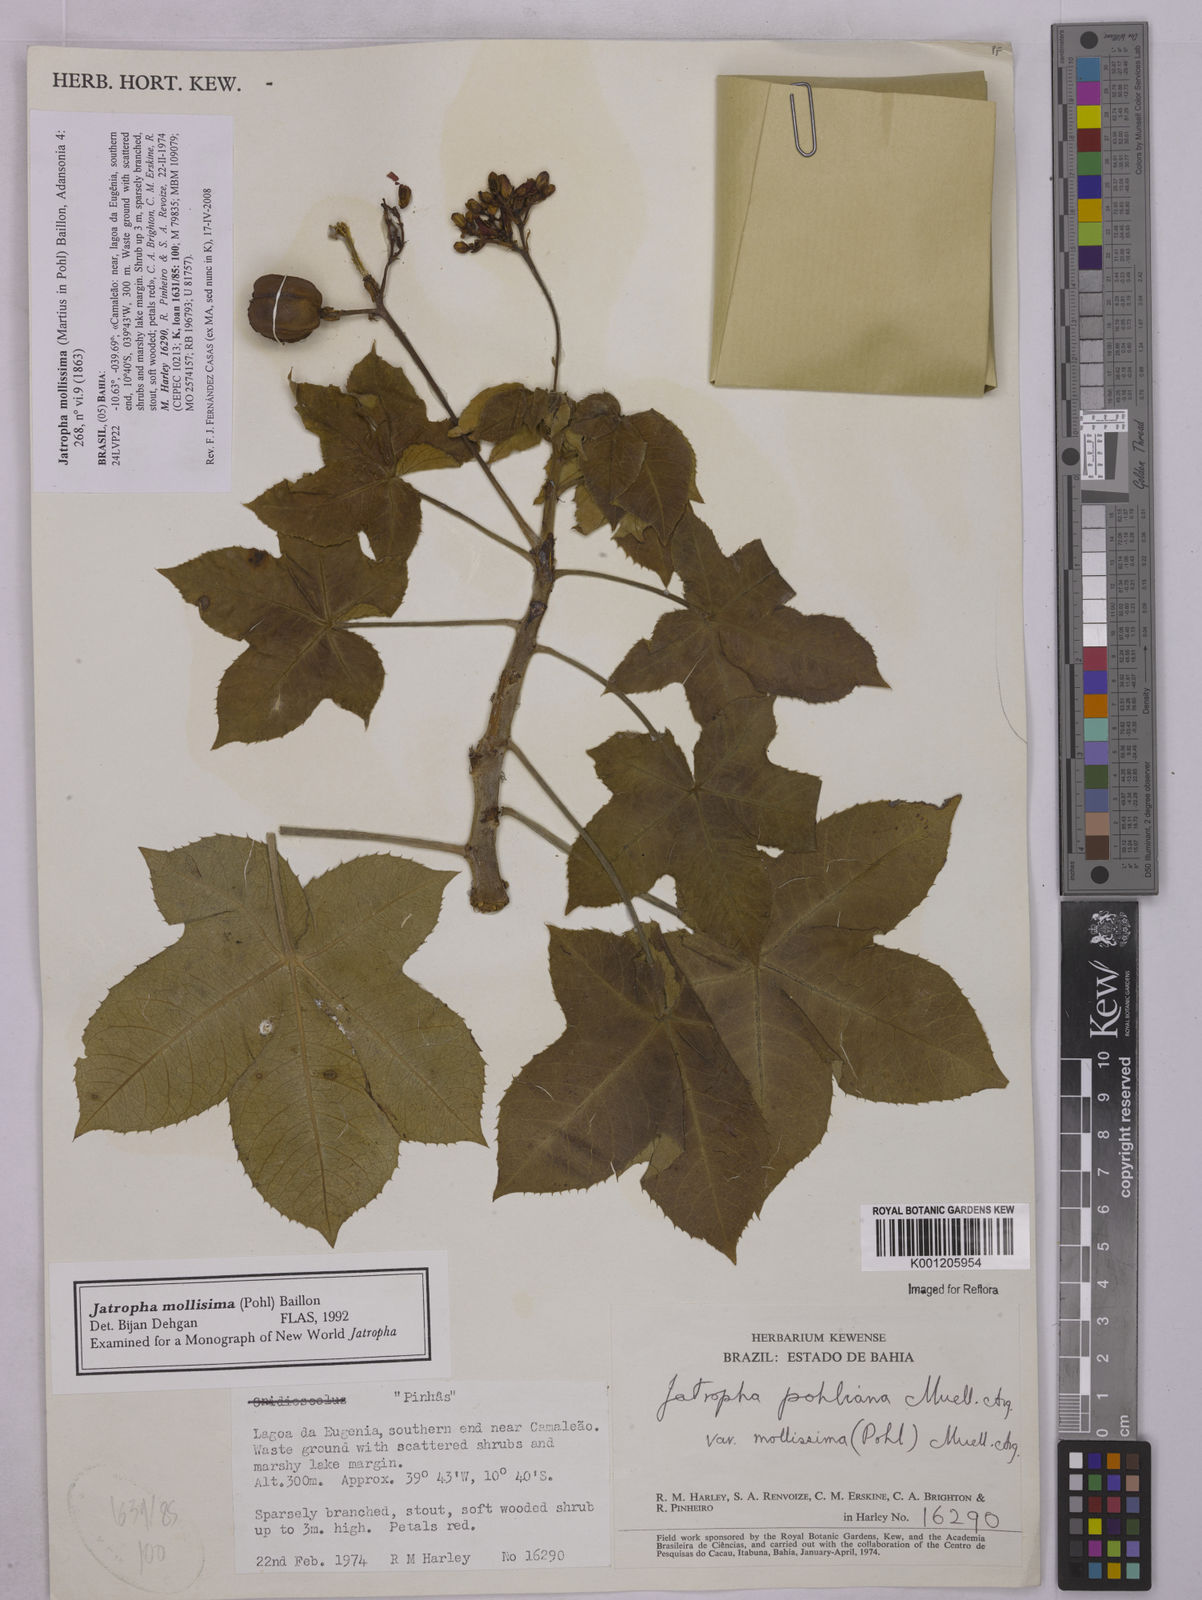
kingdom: Plantae
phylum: Tracheophyta
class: Magnoliopsida
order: Malpighiales
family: Euphorbiaceae
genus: Jatropha
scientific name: Jatropha mollissima
